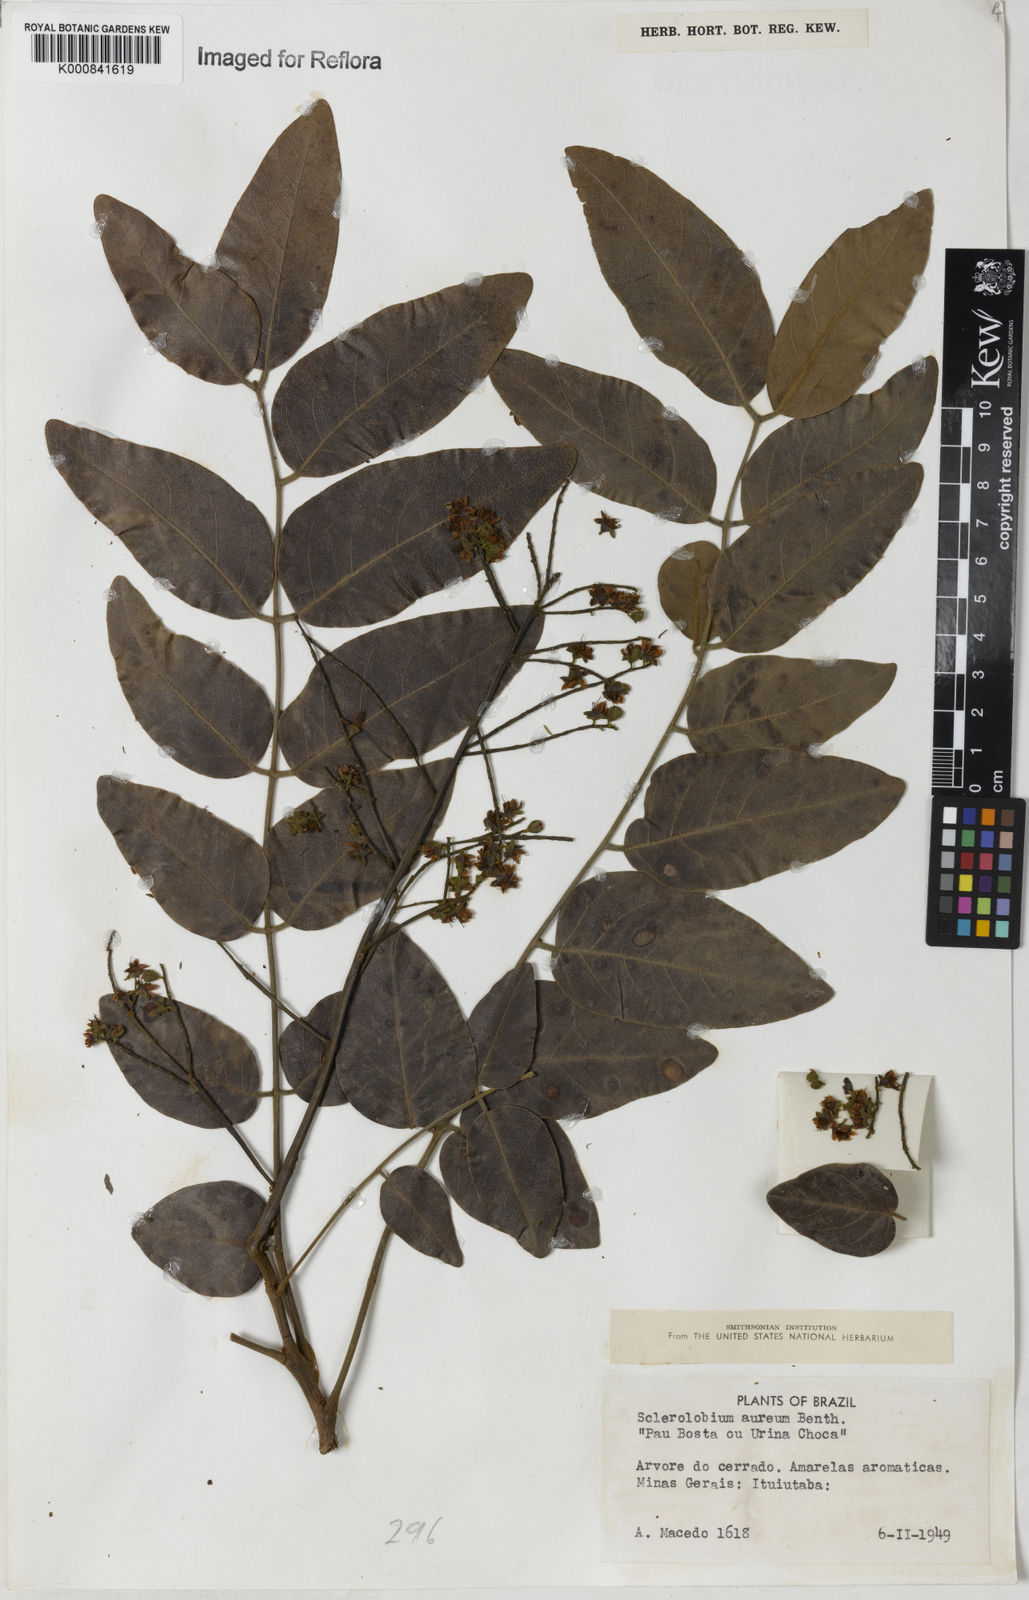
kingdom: Plantae
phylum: Tracheophyta
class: Magnoliopsida
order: Fabales
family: Fabaceae
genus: Tachigali
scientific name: Tachigali aurea
